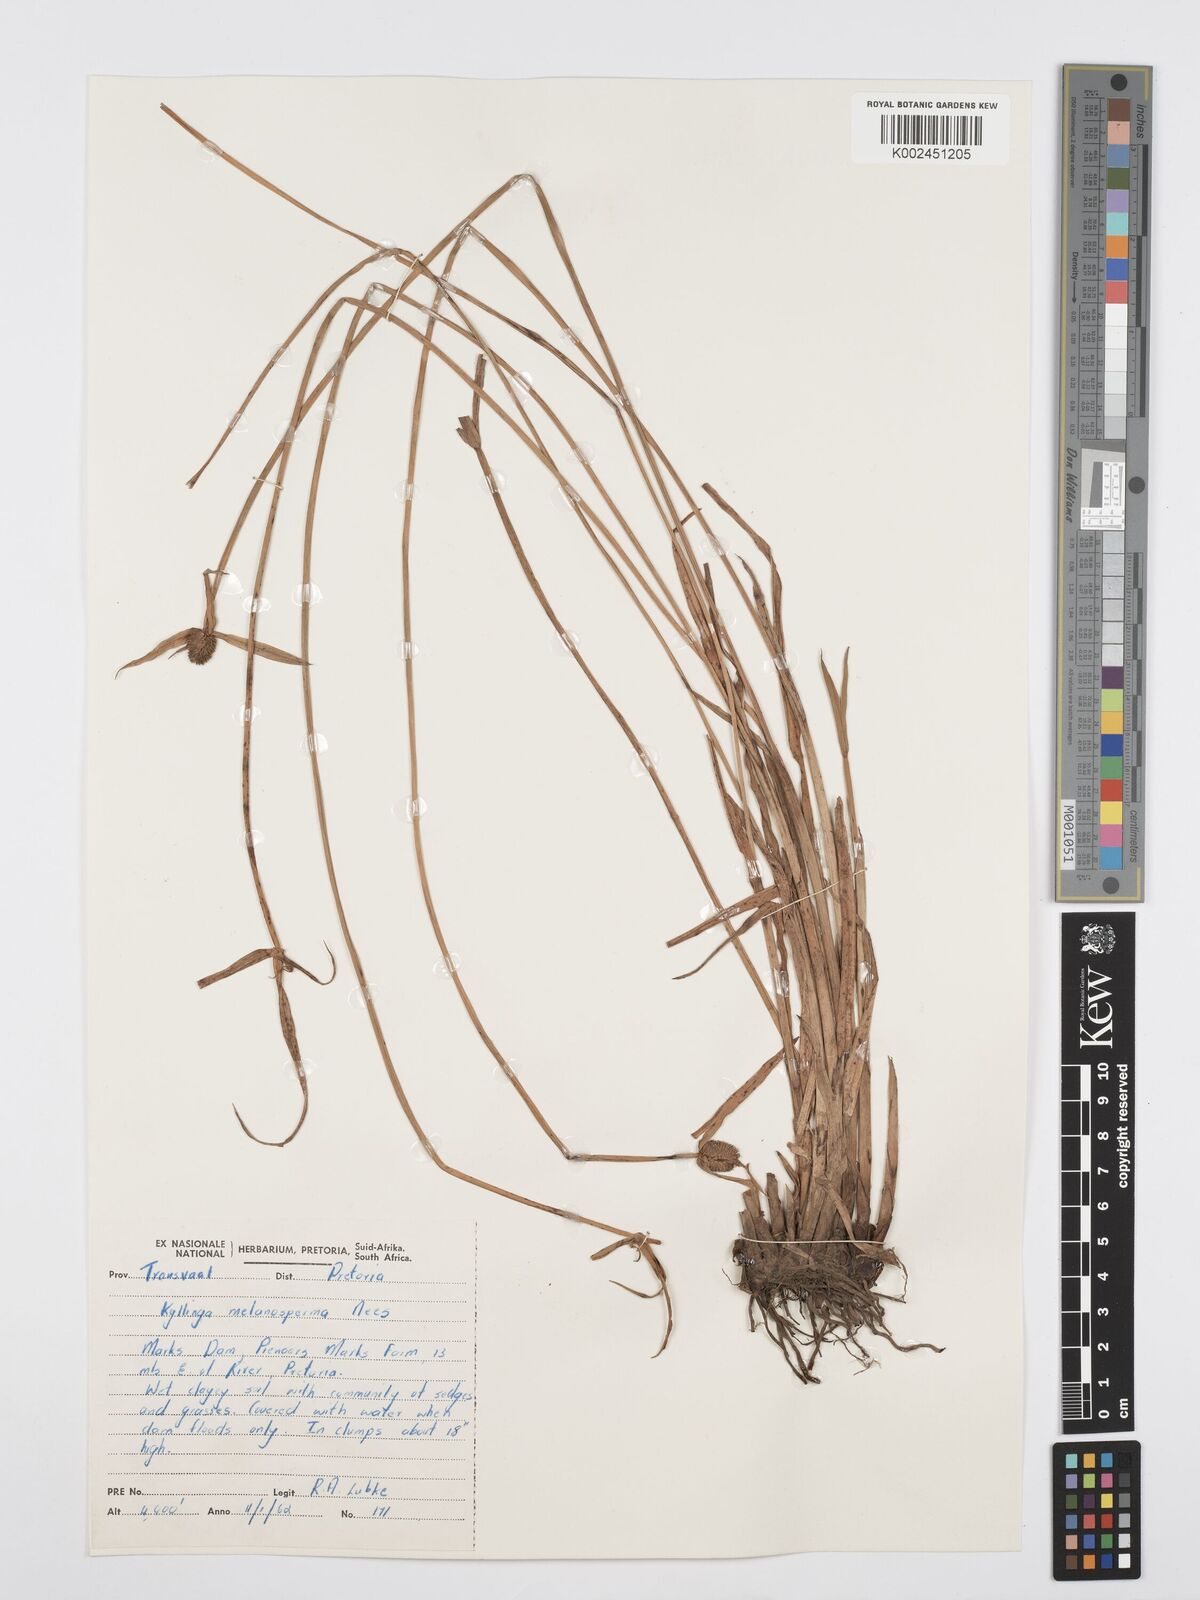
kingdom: Plantae
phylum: Tracheophyta
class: Liliopsida
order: Poales
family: Cyperaceae
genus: Cyperus
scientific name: Cyperus melanospermus
